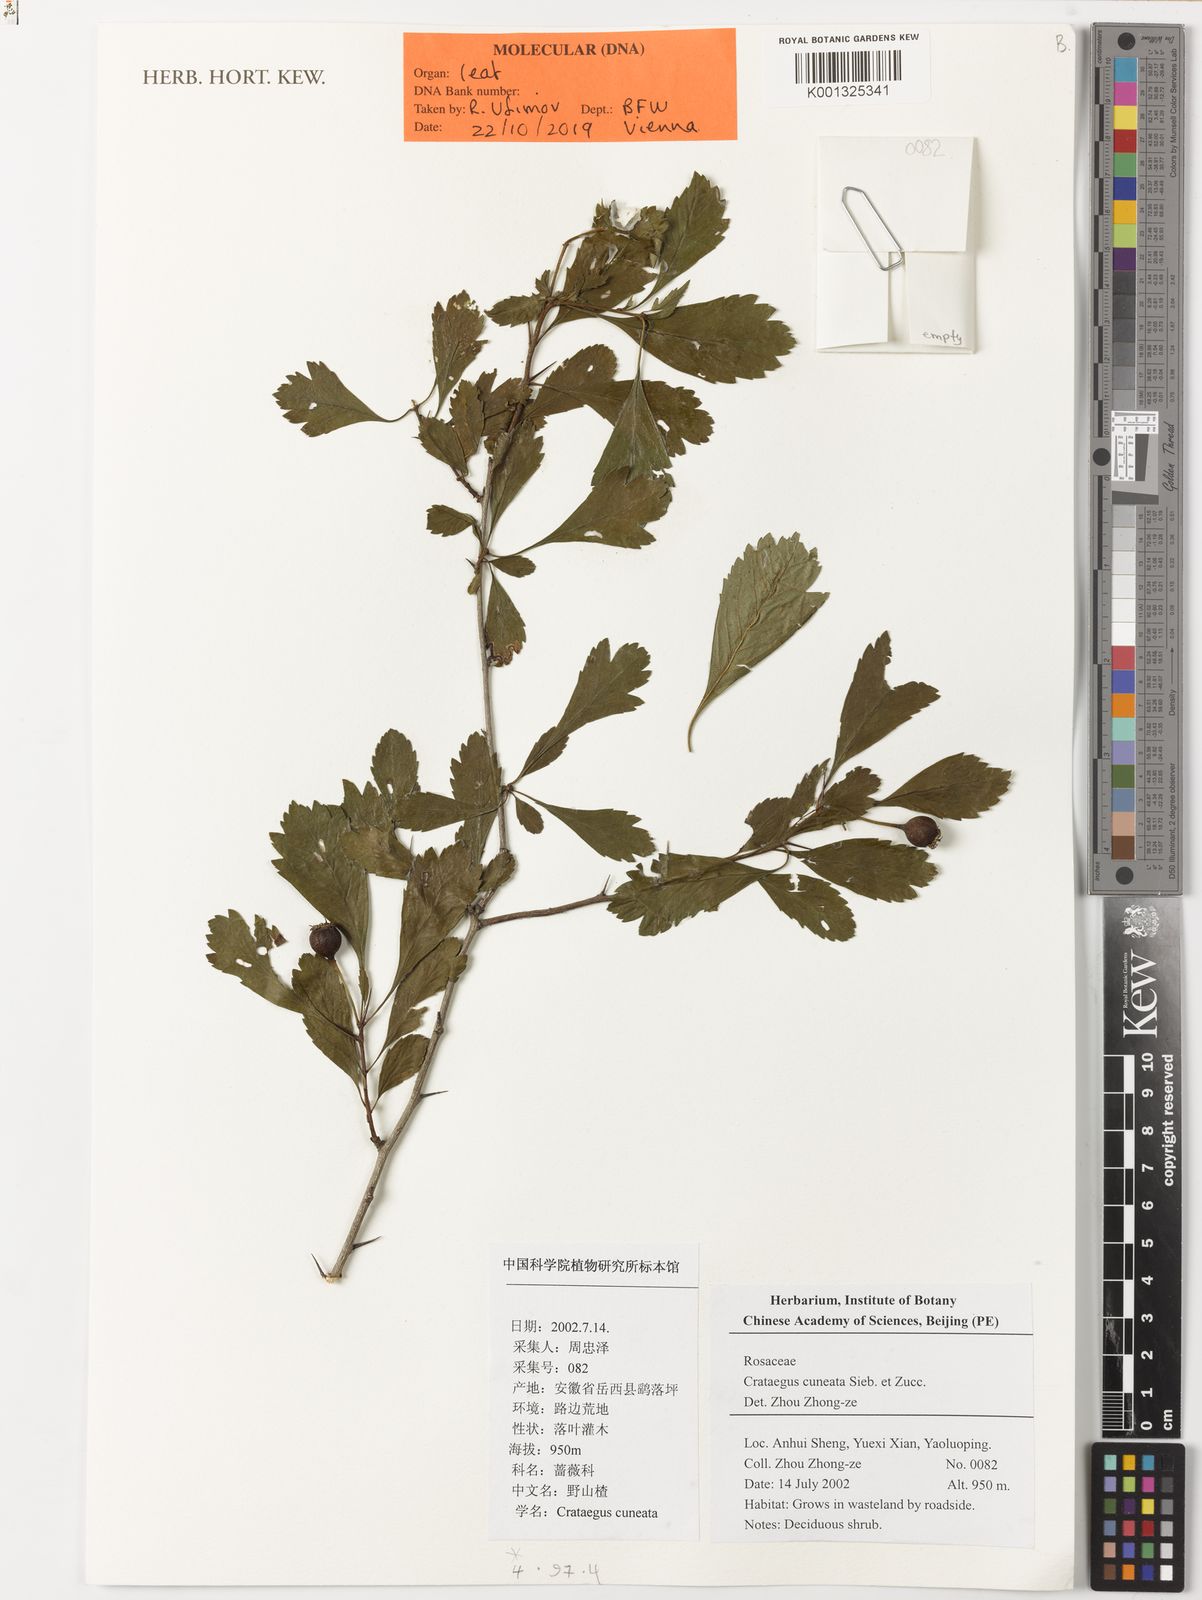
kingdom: Plantae
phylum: Tracheophyta
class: Magnoliopsida
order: Rosales
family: Rosaceae
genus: Crataegus
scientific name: Crataegus cuneata
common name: Chinese hawthorn
